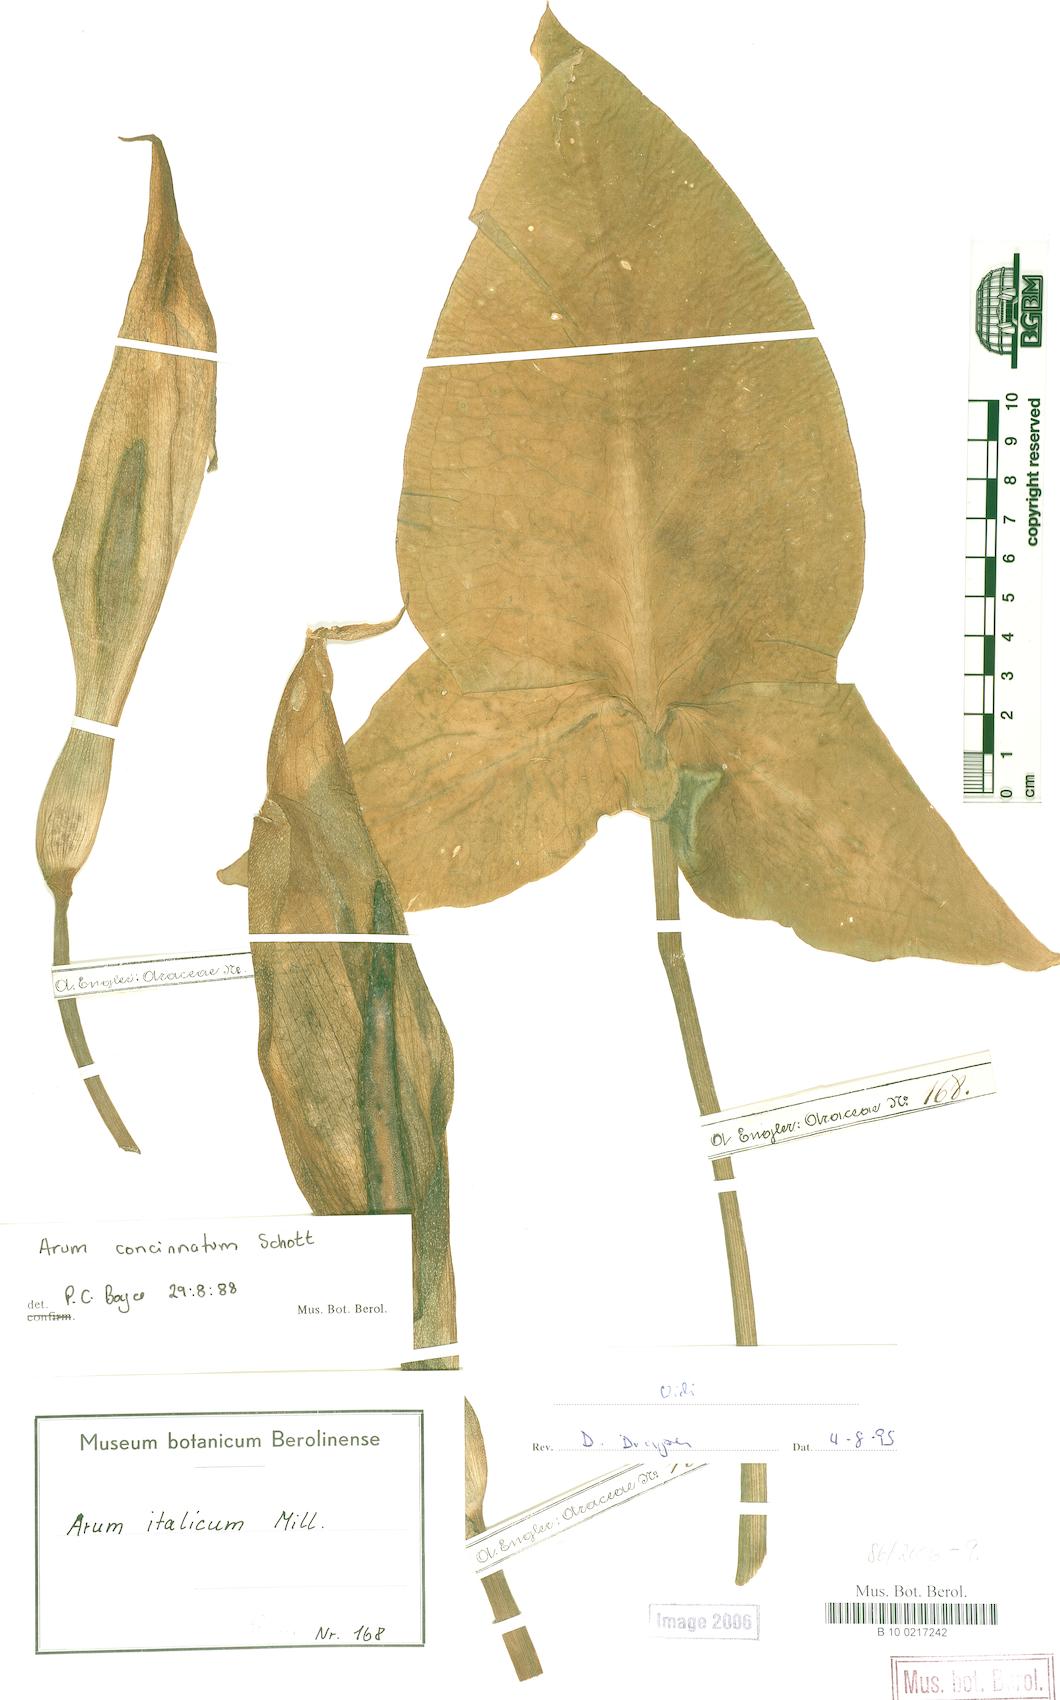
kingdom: Plantae
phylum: Tracheophyta
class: Liliopsida
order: Alismatales
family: Araceae
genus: Arum
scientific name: Arum concinnatum
